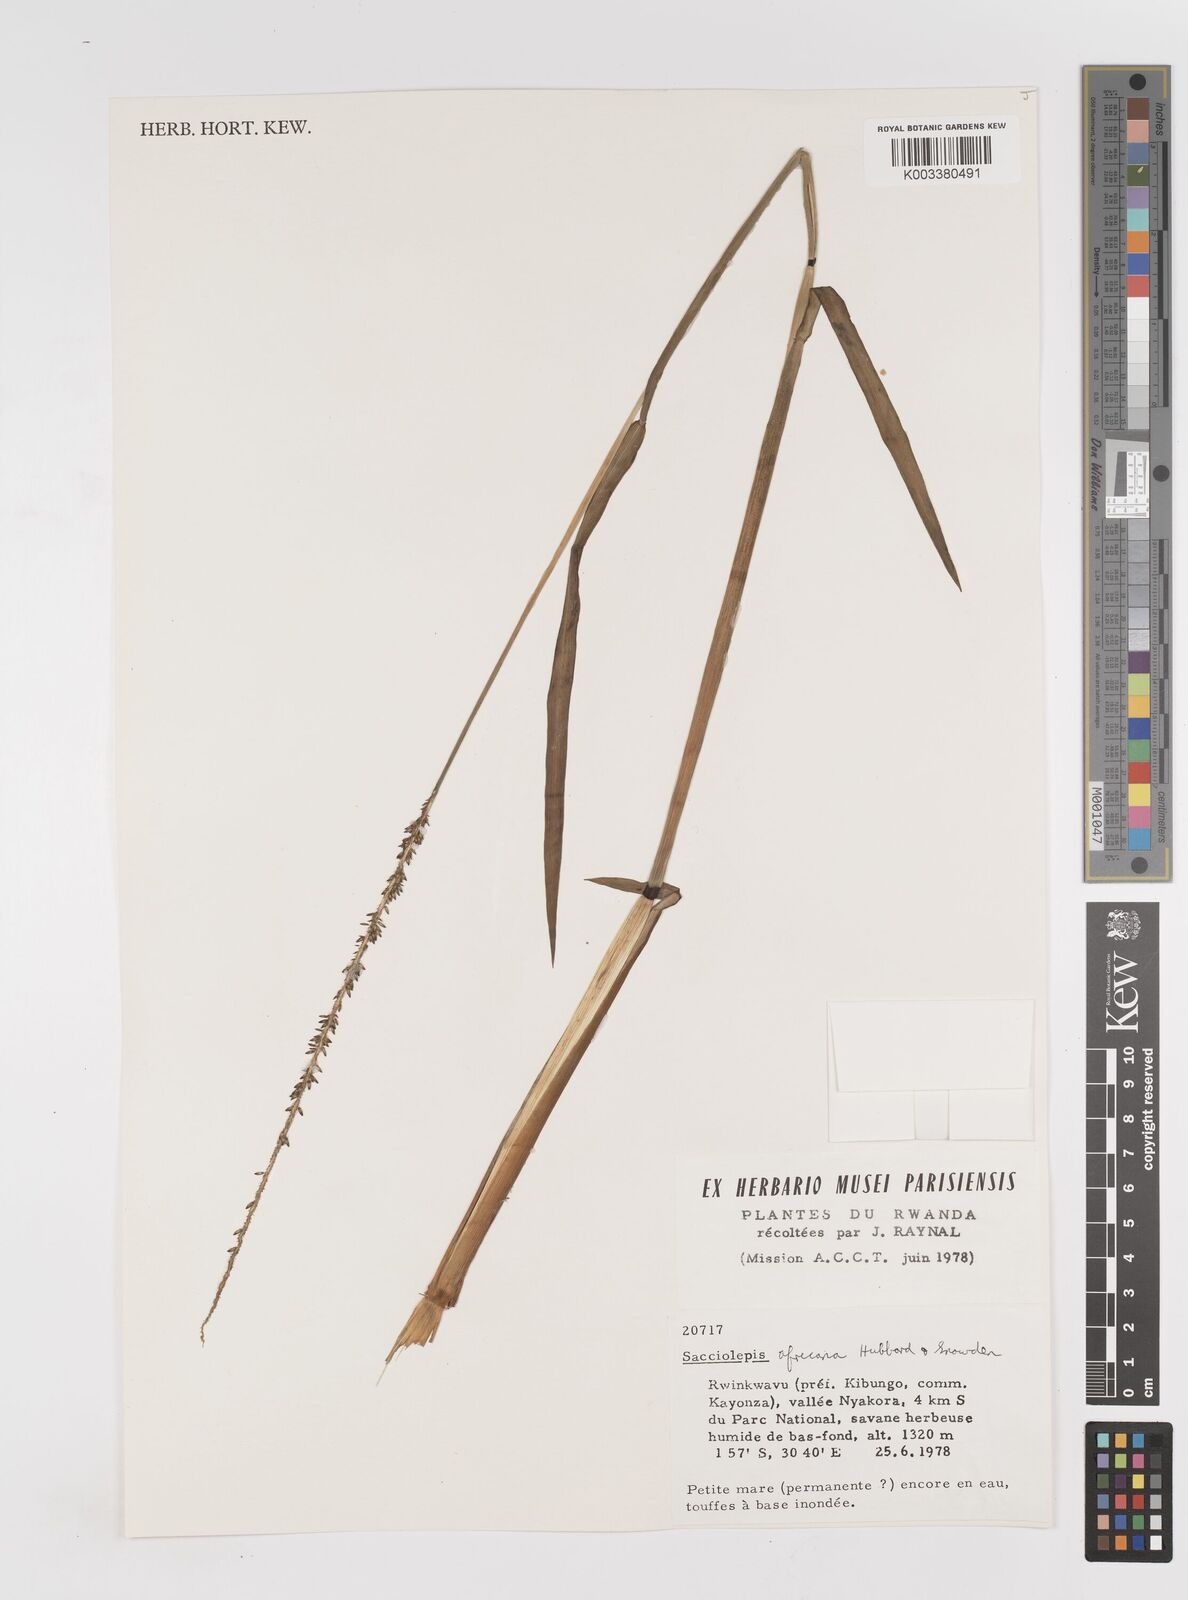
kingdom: Plantae
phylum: Tracheophyta
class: Liliopsida
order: Poales
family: Poaceae
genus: Sacciolepis
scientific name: Sacciolepis africana
